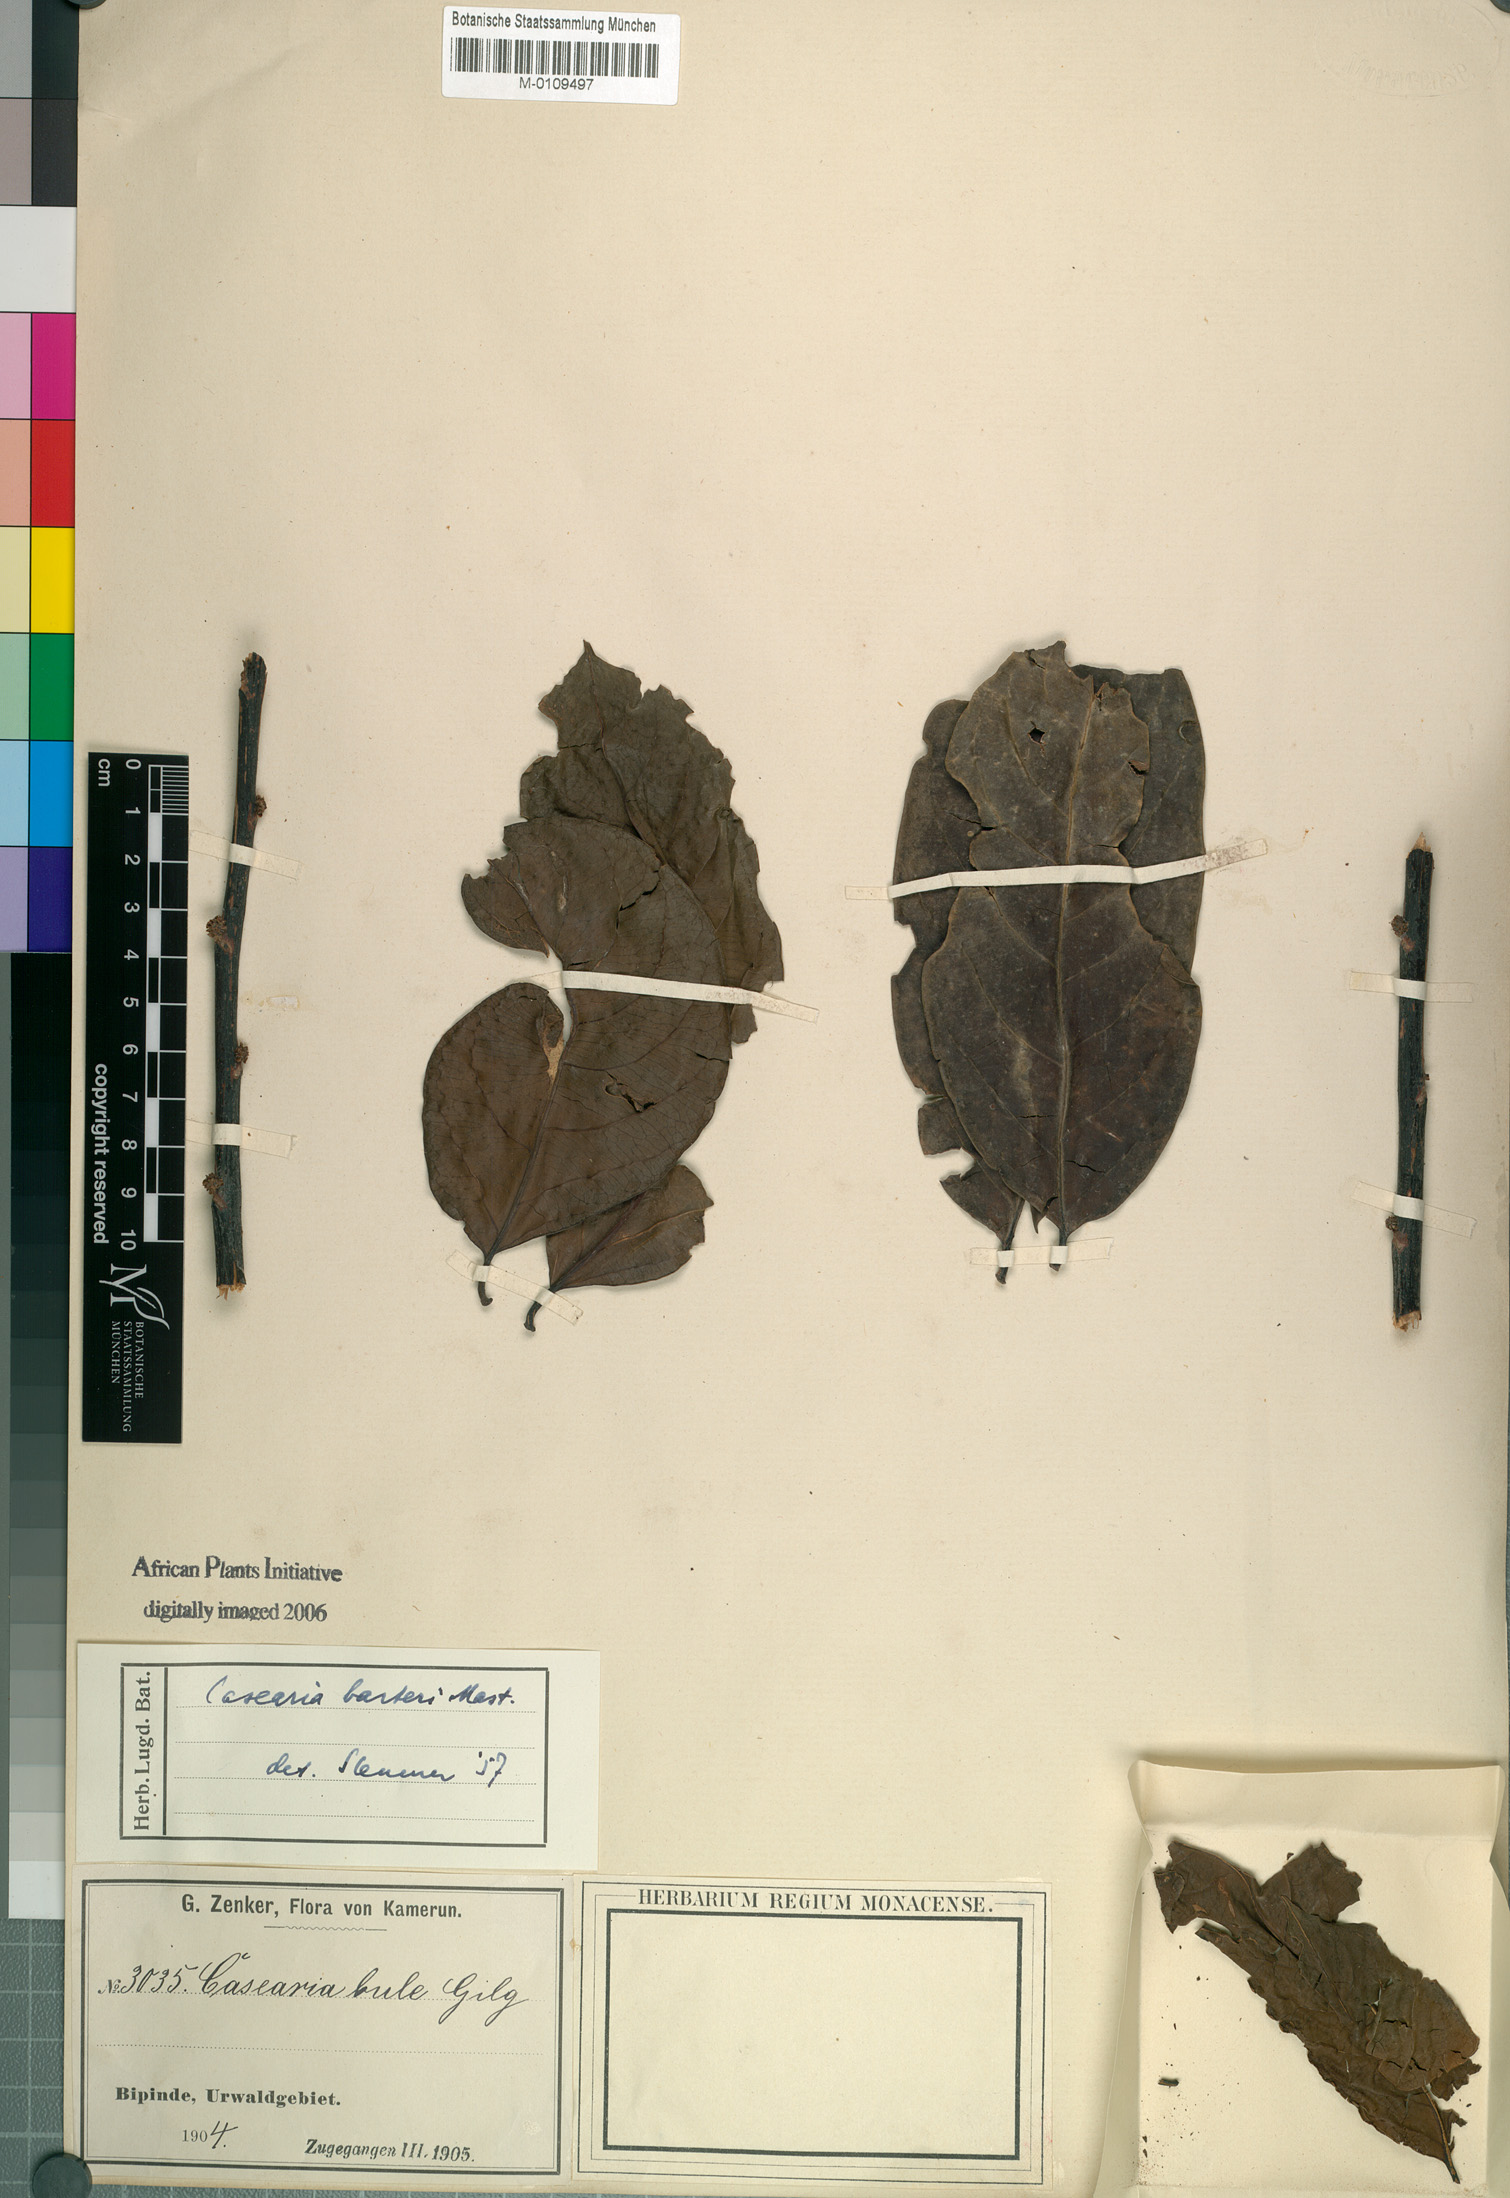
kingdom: Plantae
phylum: Tracheophyta
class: Magnoliopsida
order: Malpighiales
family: Salicaceae
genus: Casearia
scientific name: Casearia barteri
